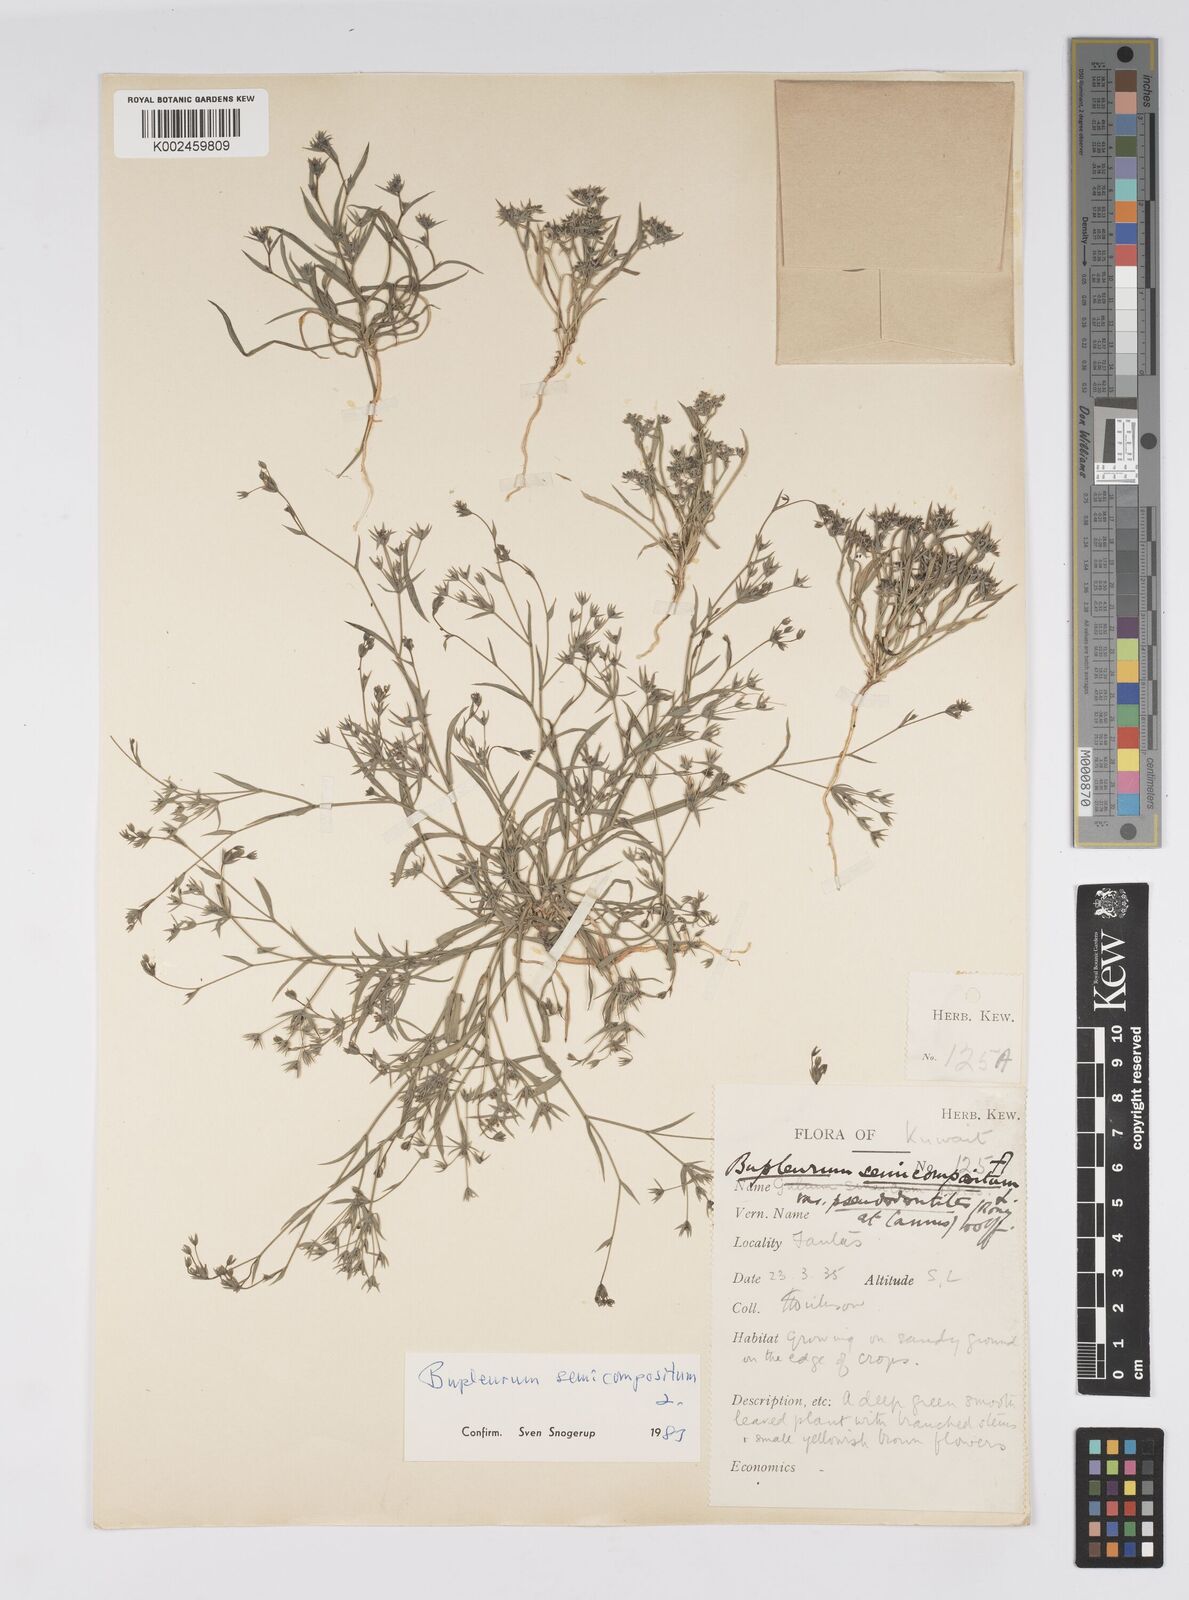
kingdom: Plantae
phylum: Tracheophyta
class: Magnoliopsida
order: Apiales
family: Apiaceae
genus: Bupleurum
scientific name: Bupleurum semicompositum
